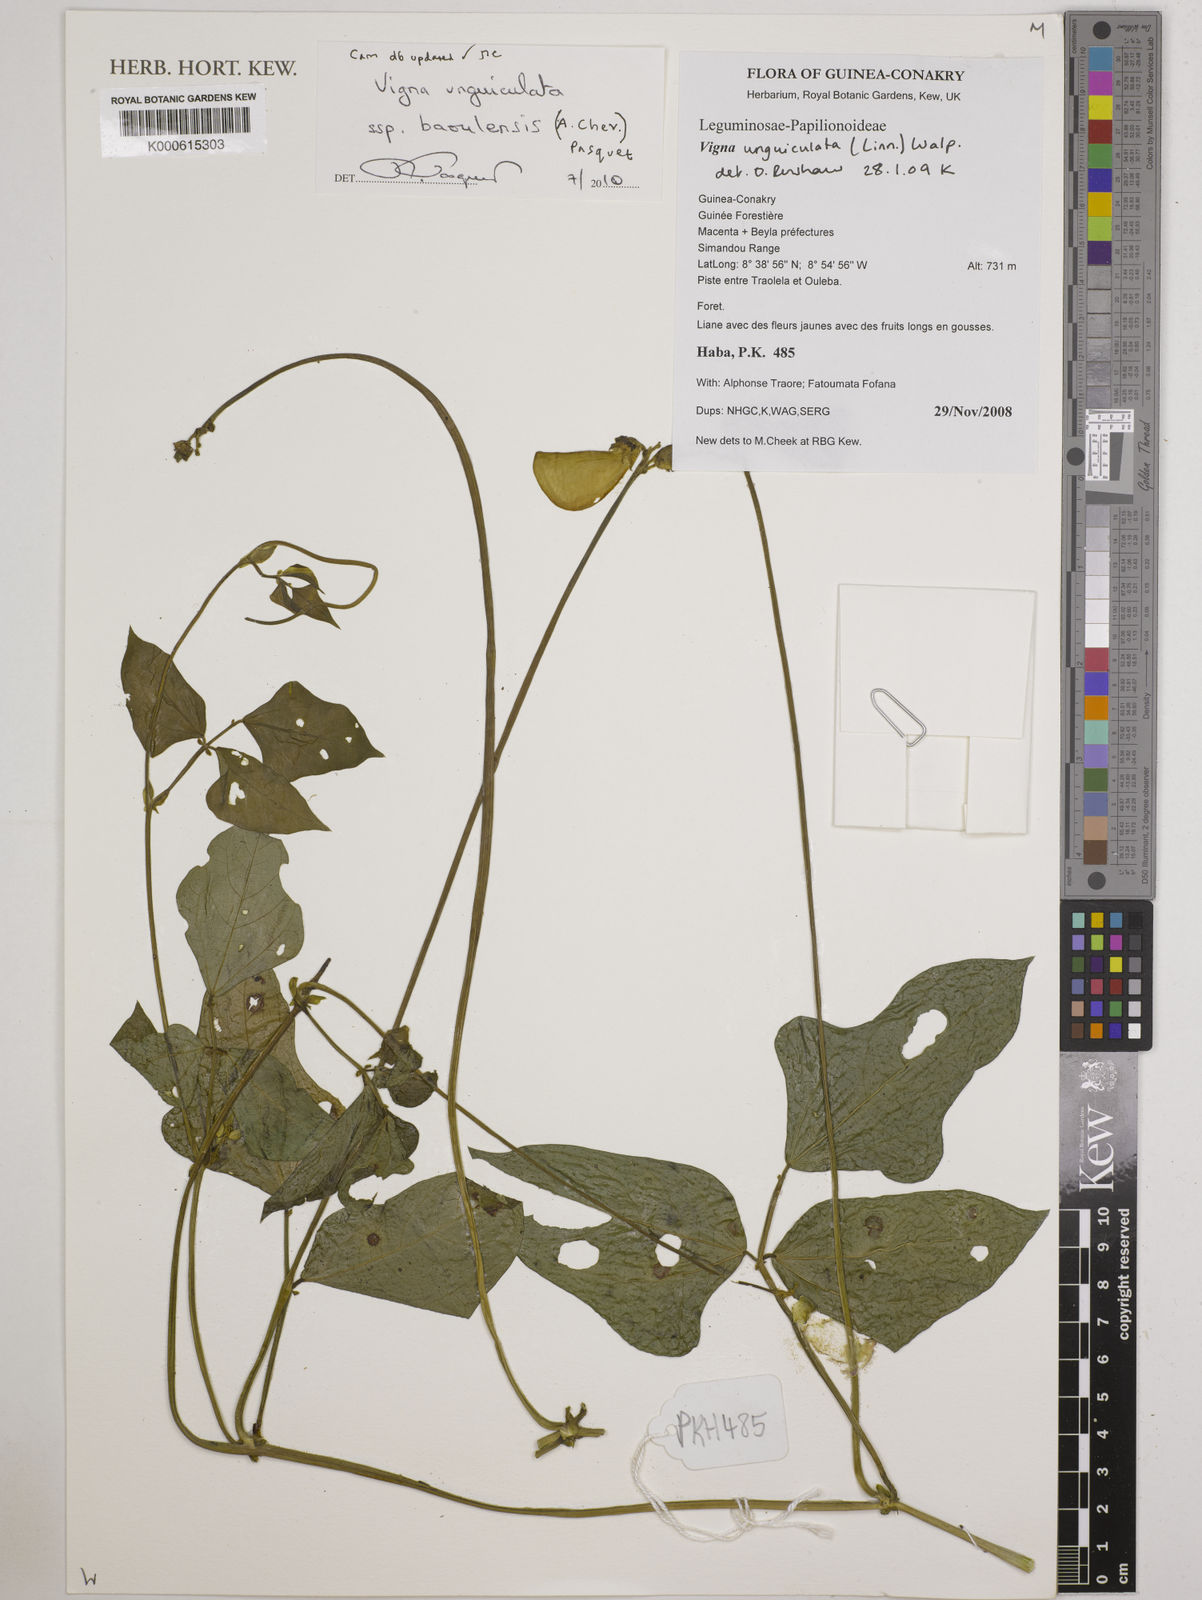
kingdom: Plantae
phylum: Tracheophyta
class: Magnoliopsida
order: Fabales
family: Fabaceae
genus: Vigna
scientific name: Vigna unguiculata
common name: Cowpea
